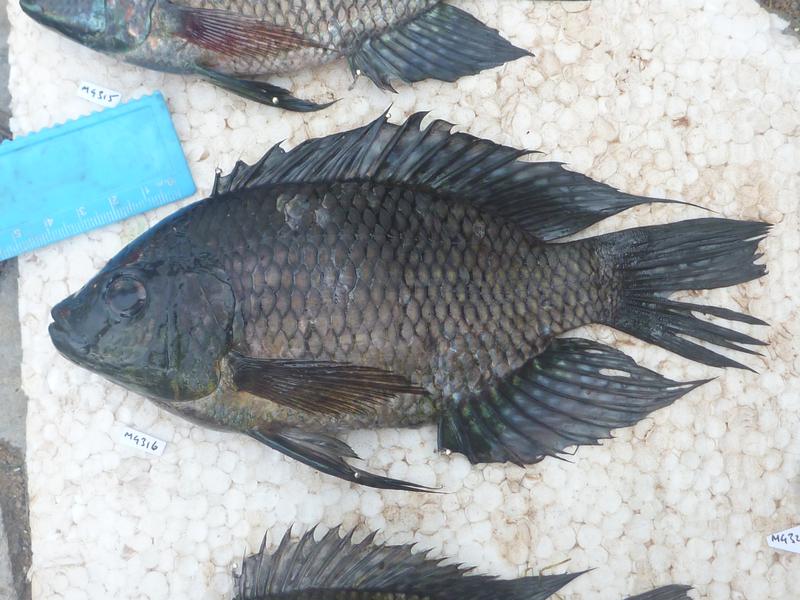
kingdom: Animalia
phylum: Chordata
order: Perciformes
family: Cichlidae
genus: Oreochromis
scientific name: Oreochromis leucostictus
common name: Blue spotted tilapia
